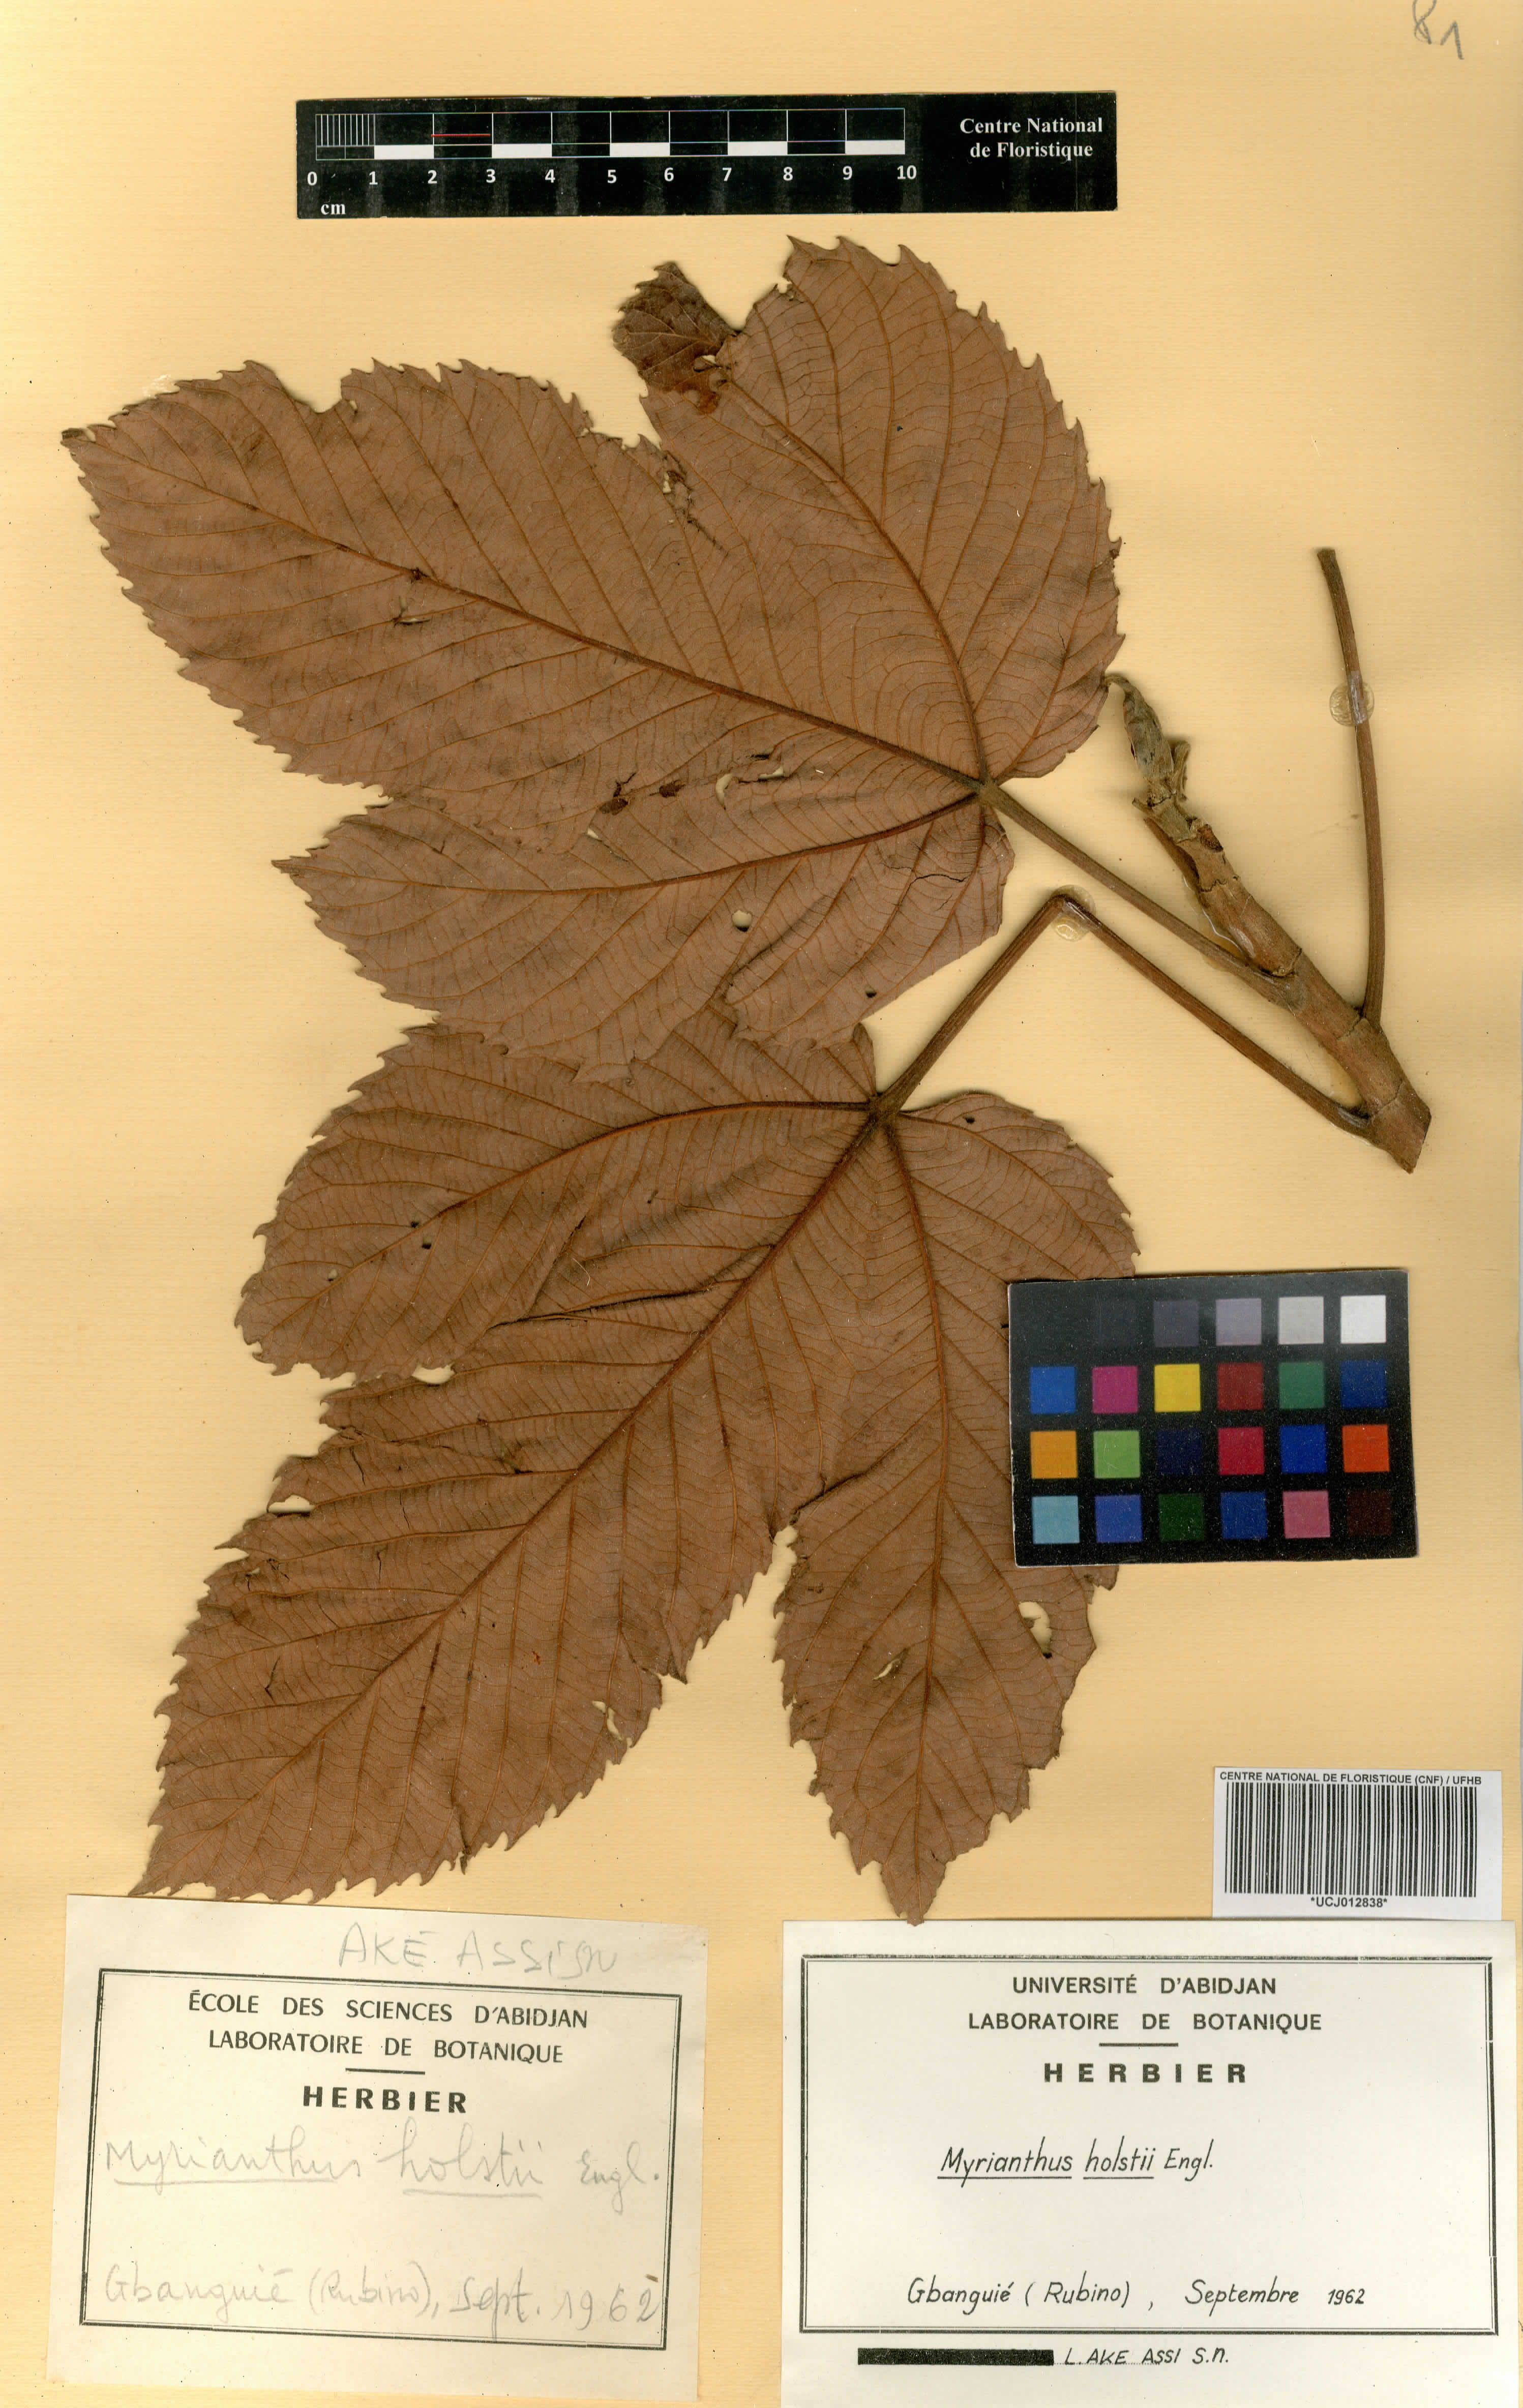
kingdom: Plantae
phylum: Tracheophyta
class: Magnoliopsida
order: Rosales
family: Urticaceae
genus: Myrianthus
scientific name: Myrianthus holstii
